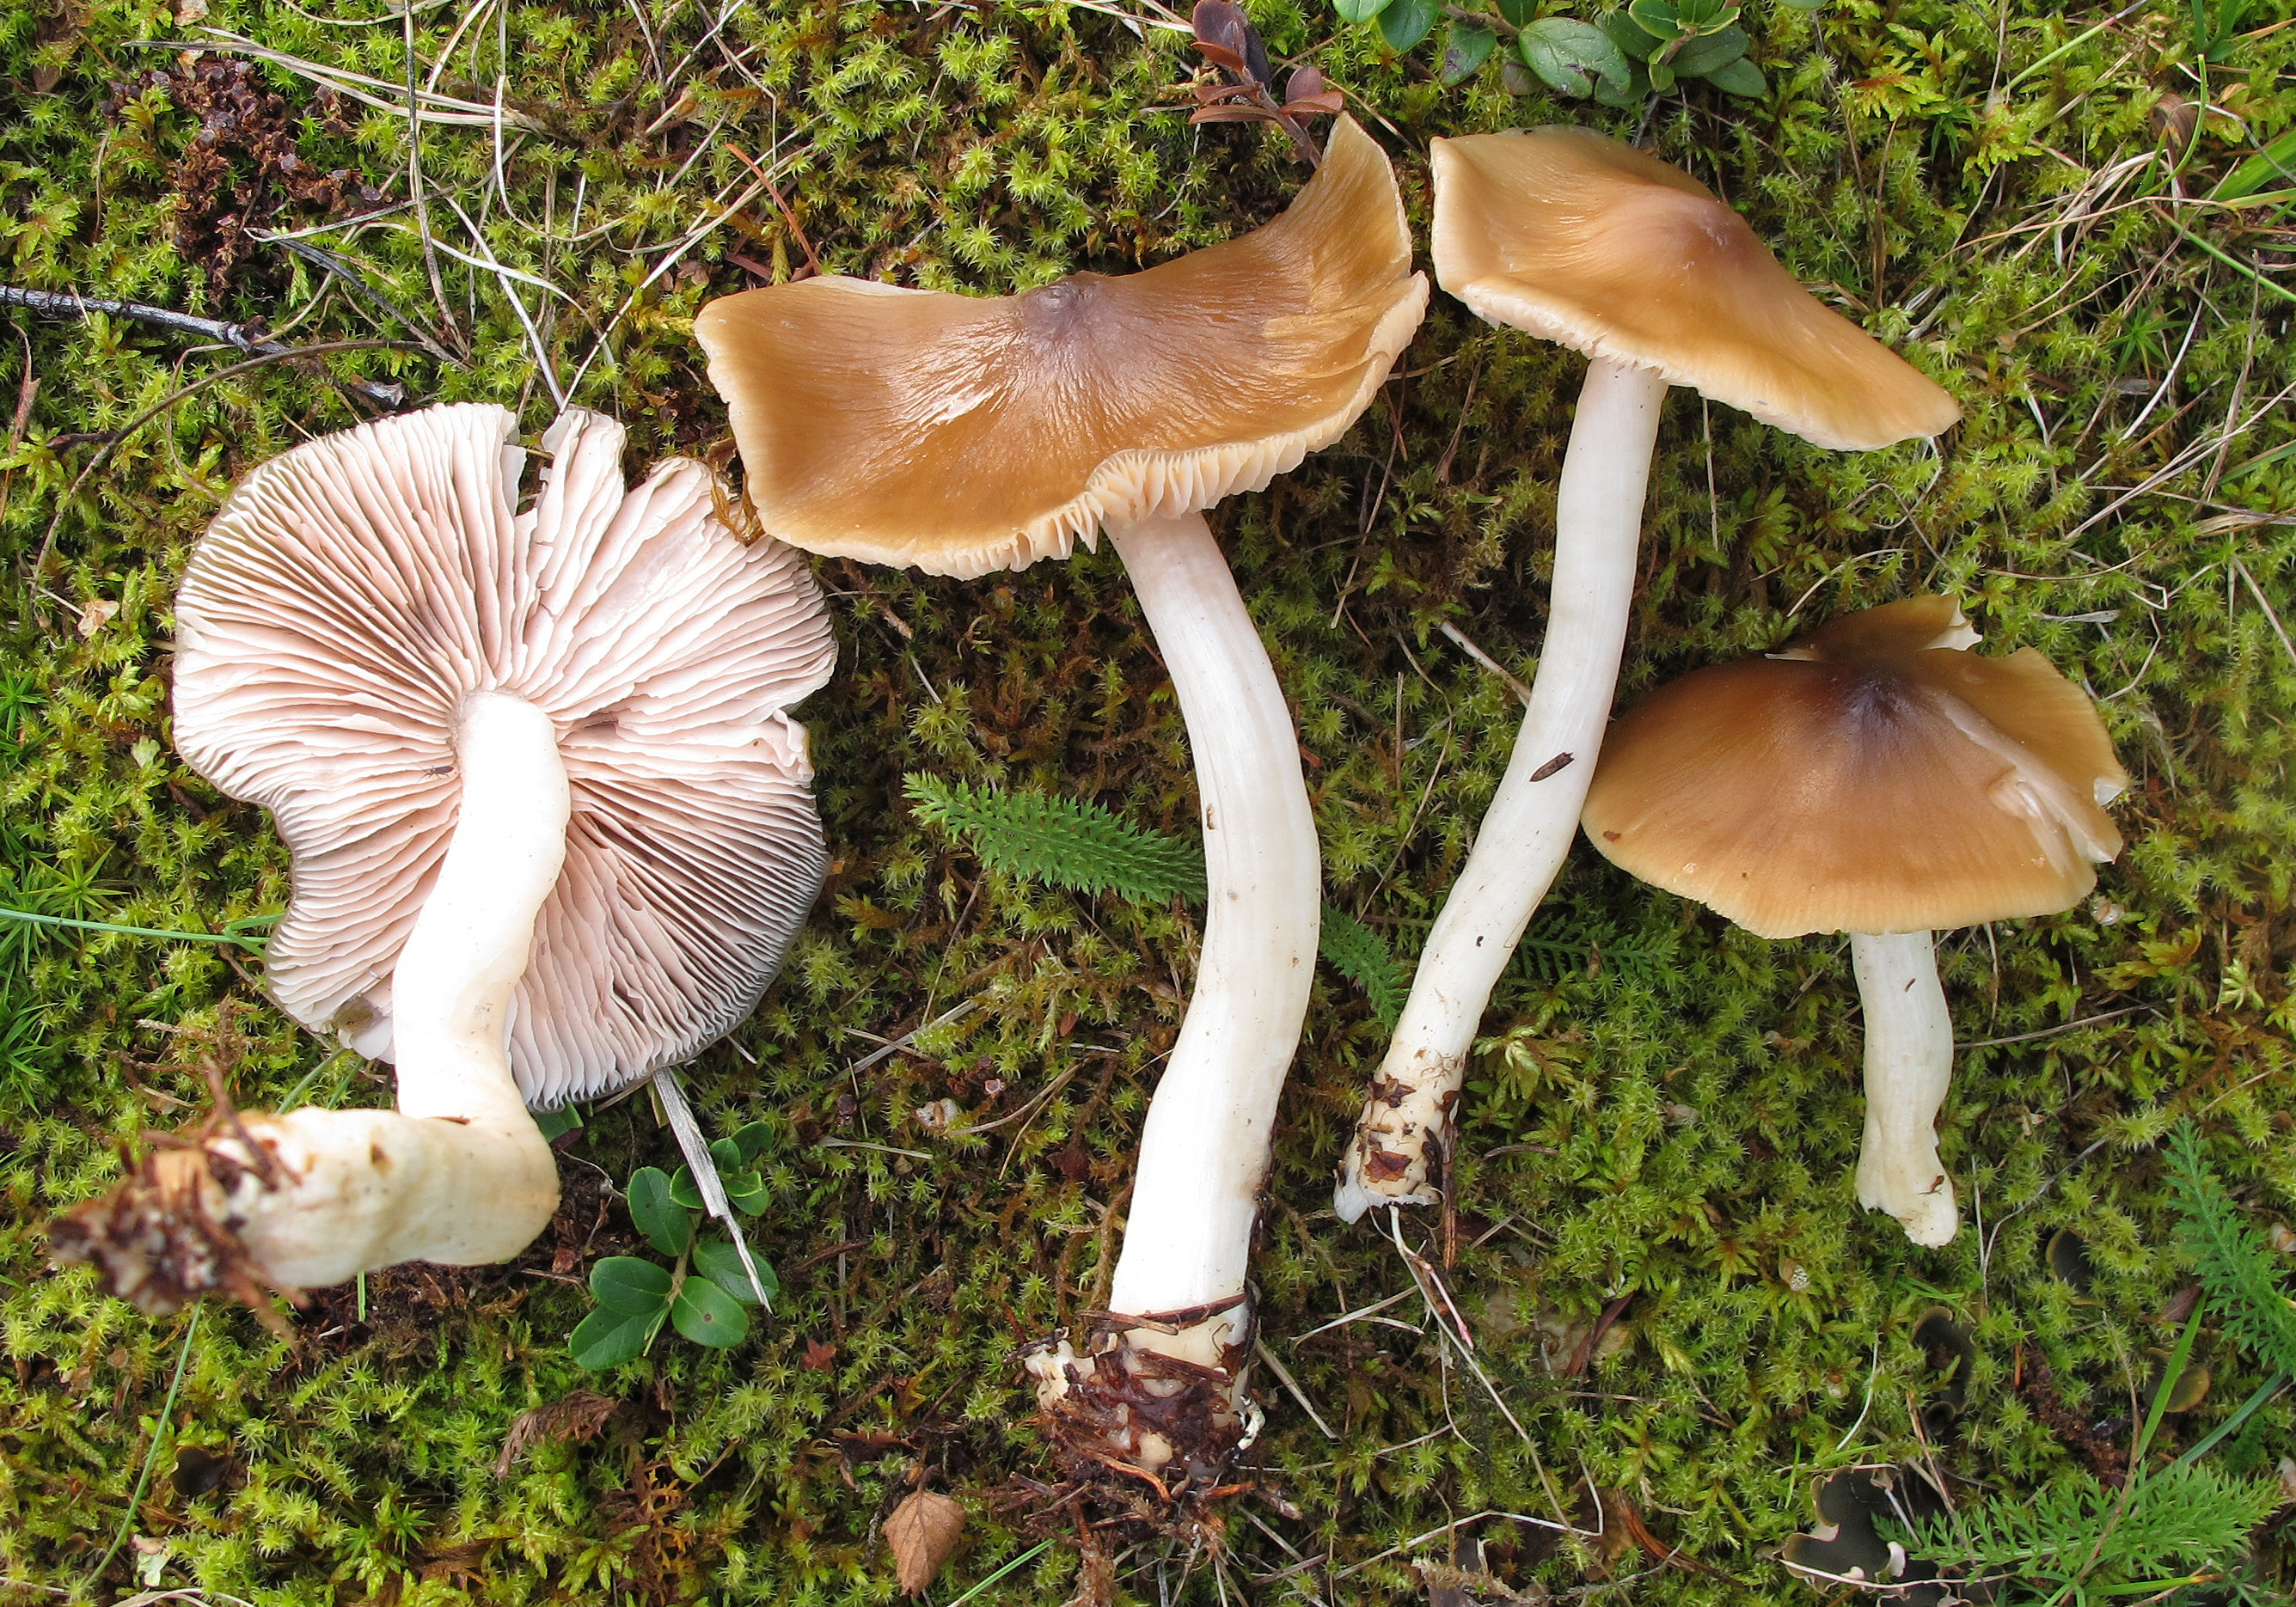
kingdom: Fungi
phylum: Basidiomycota
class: Agaricomycetes
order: Agaricales
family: Entolomataceae
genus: Entoloma
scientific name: Entoloma majaloides
